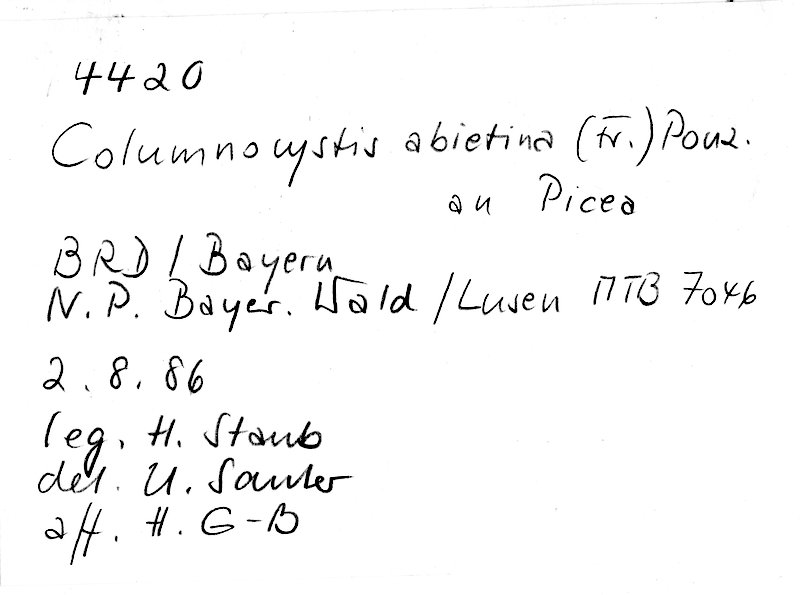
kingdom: Fungi
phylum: Basidiomycota
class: Agaricomycetes
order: Gloeophyllales
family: Gloeophyllaceae
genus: Veluticeps
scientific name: Veluticeps abietina
